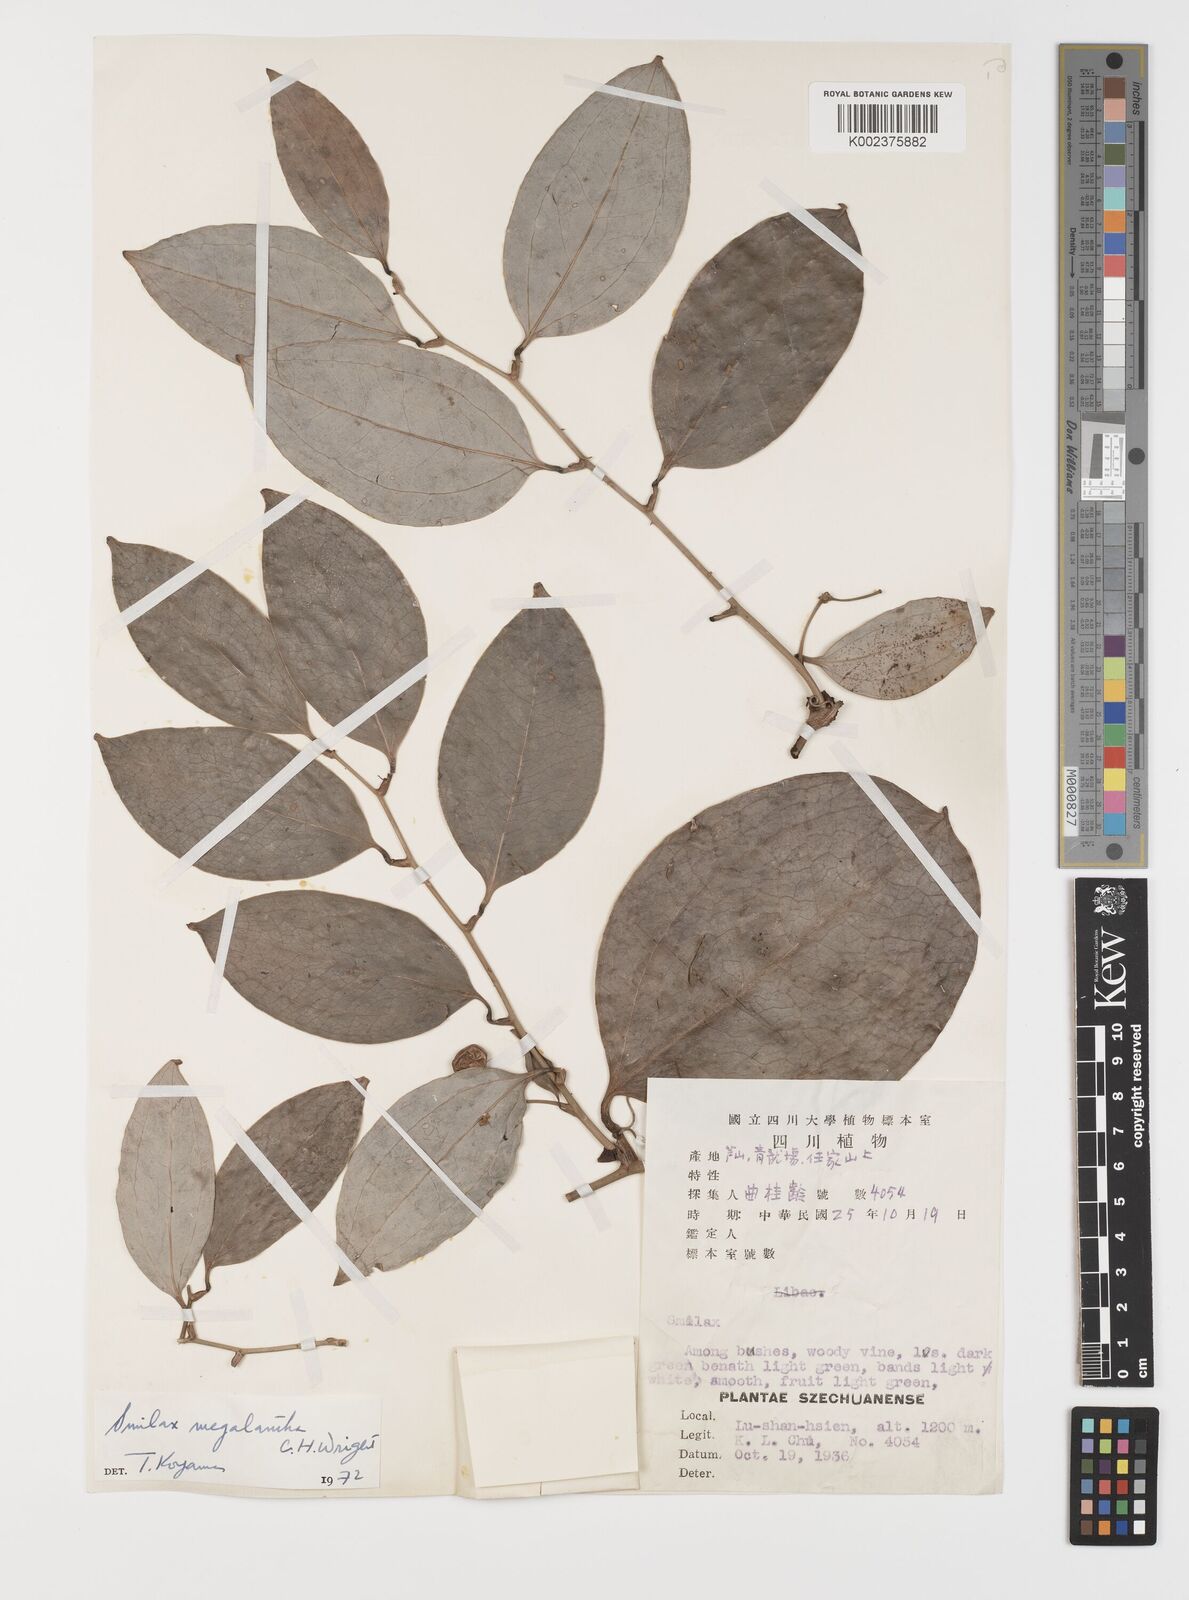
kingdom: Plantae
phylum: Tracheophyta
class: Liliopsida
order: Liliales
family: Smilacaceae
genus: Smilax
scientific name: Smilax megalantha
